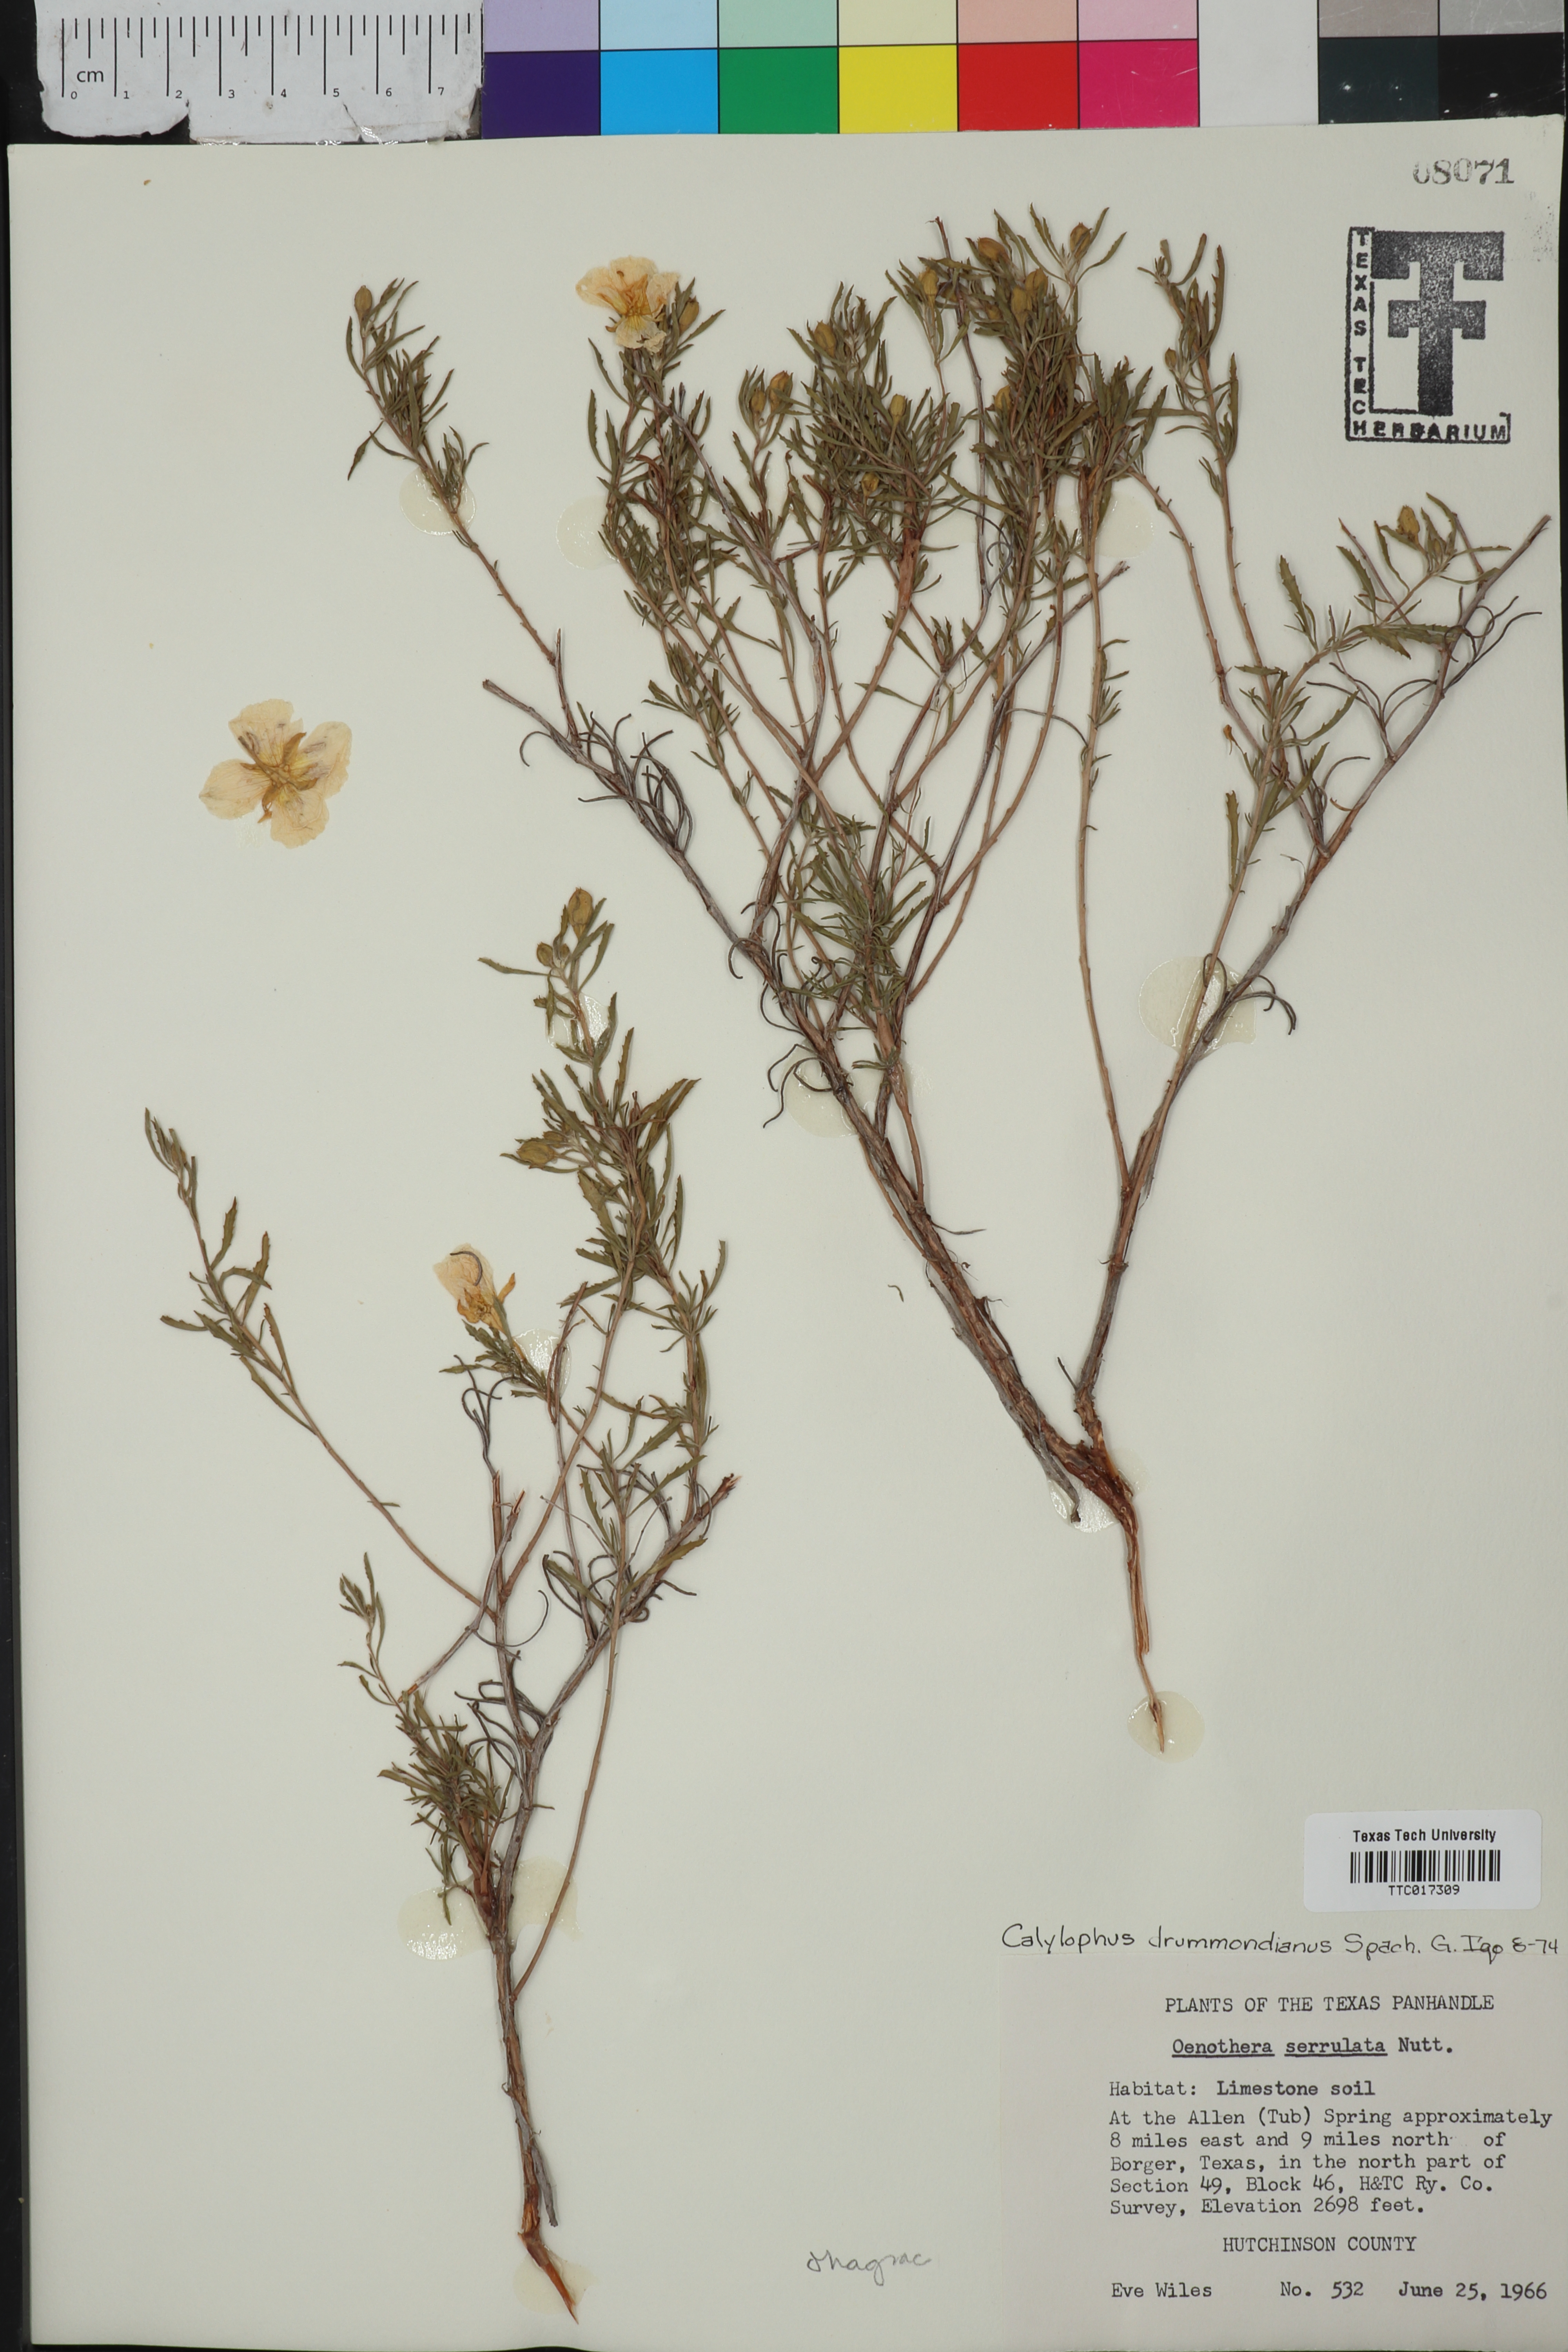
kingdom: Plantae
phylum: Tracheophyta
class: Magnoliopsida
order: Myrtales
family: Onagraceae
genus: Oenothera
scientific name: Oenothera serrulata
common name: Half-shrub calylophus
